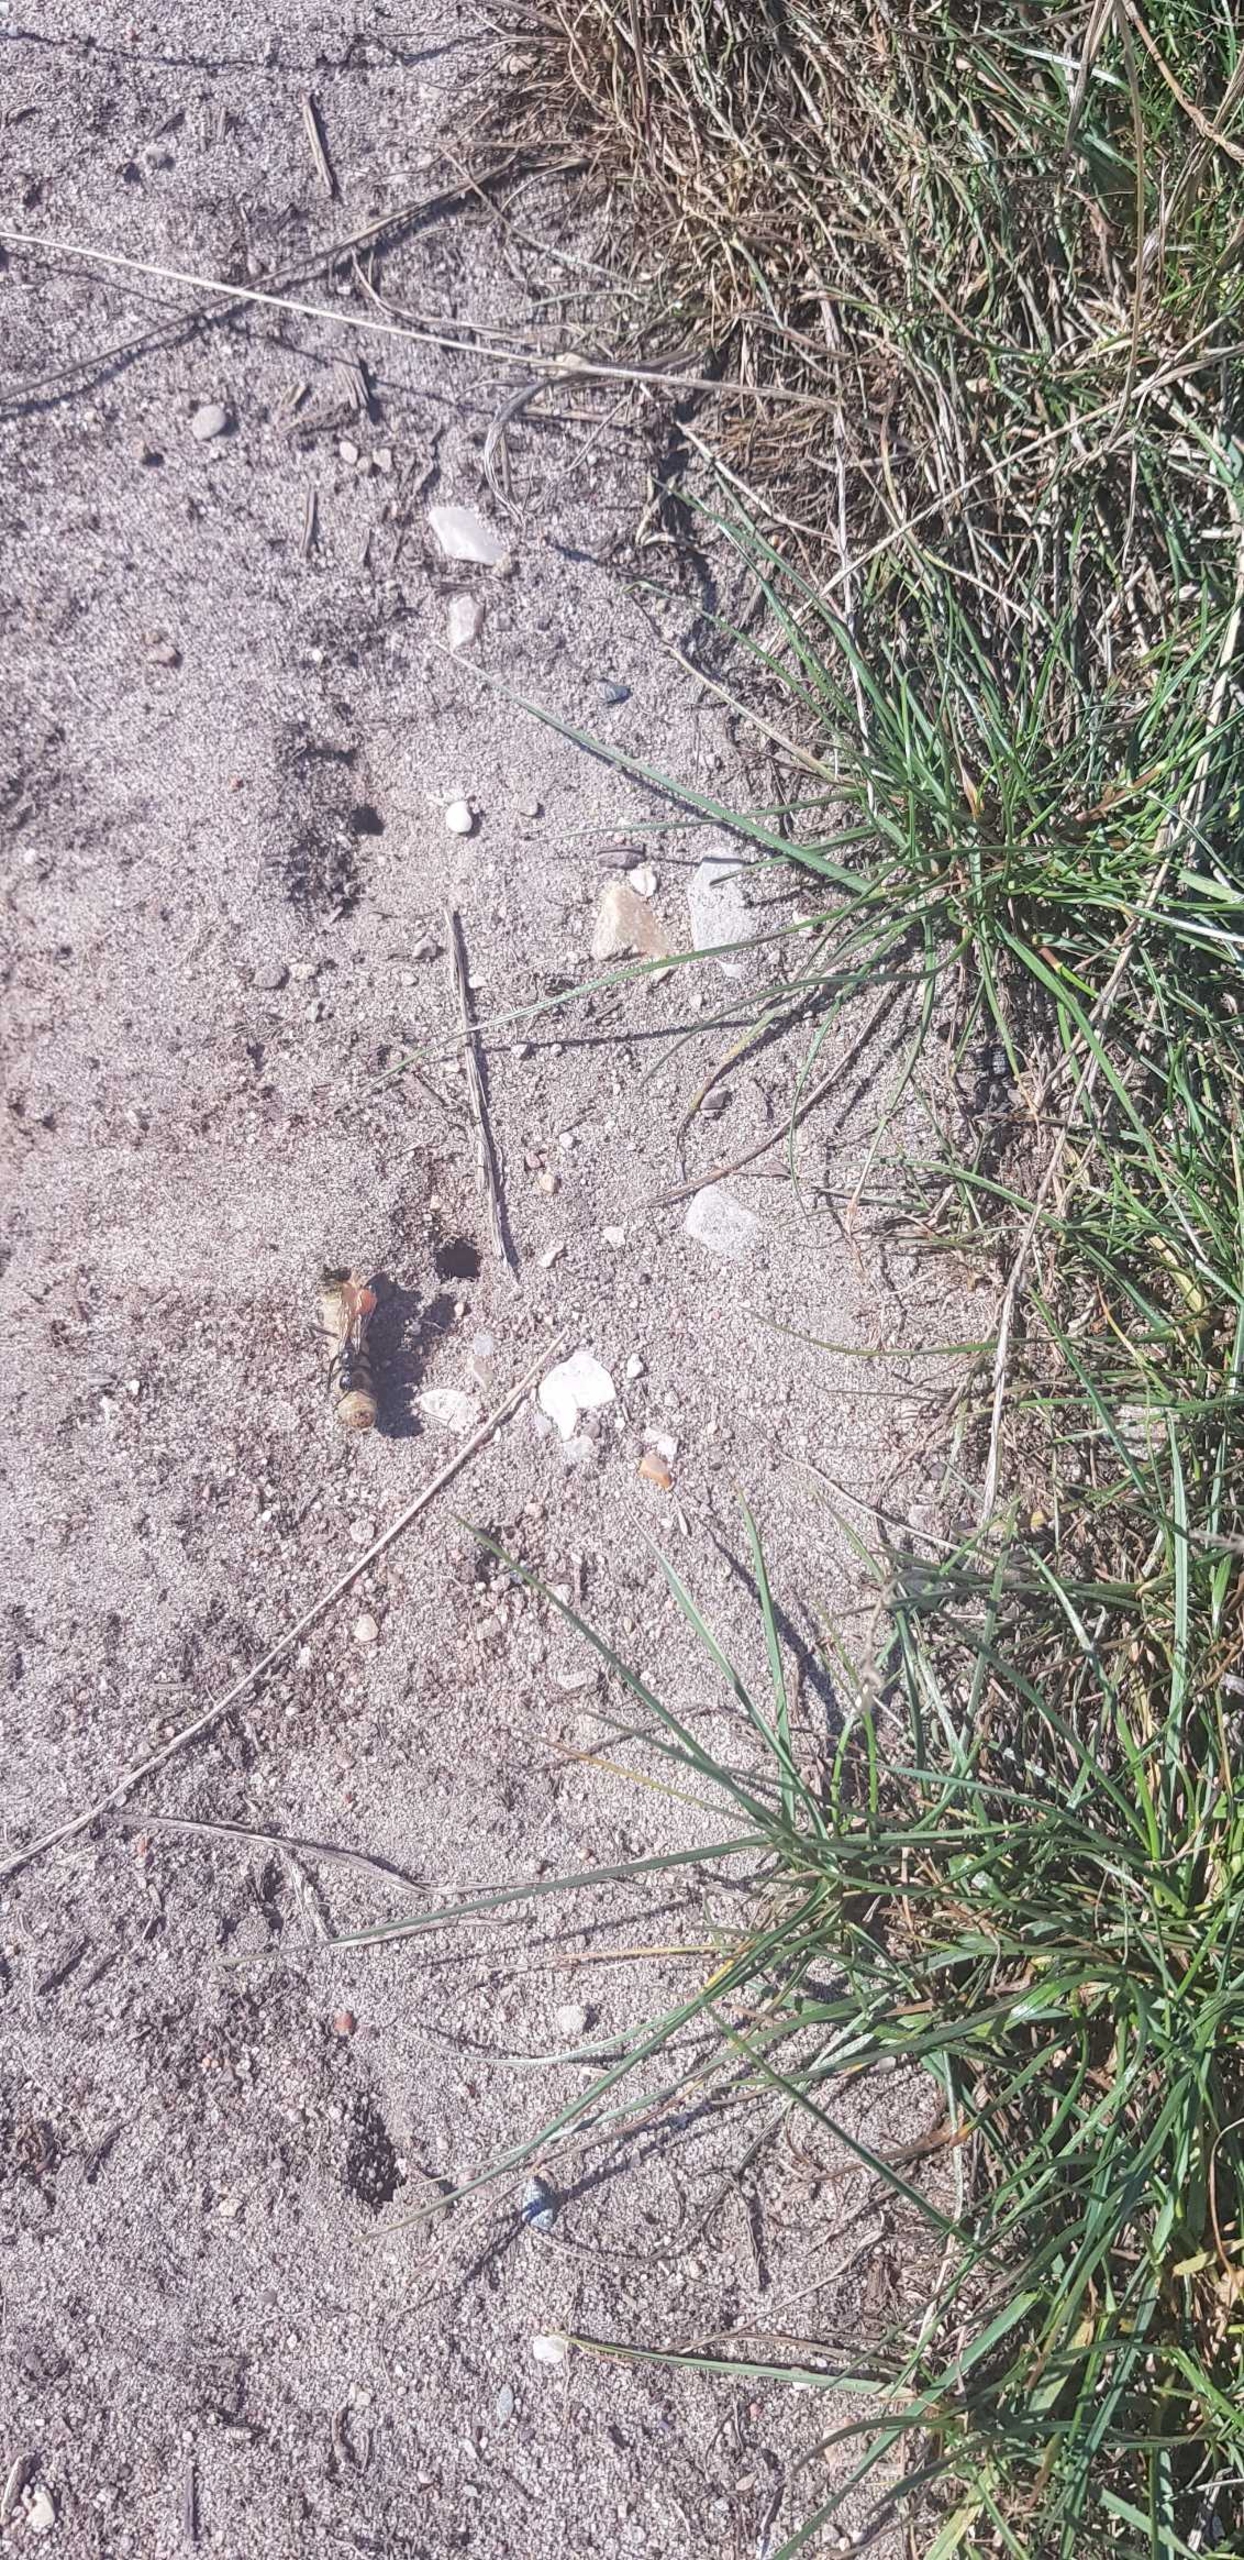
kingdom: Animalia
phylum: Arthropoda
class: Insecta
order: Hymenoptera
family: Sphecidae
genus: Ammophila
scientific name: Ammophila
